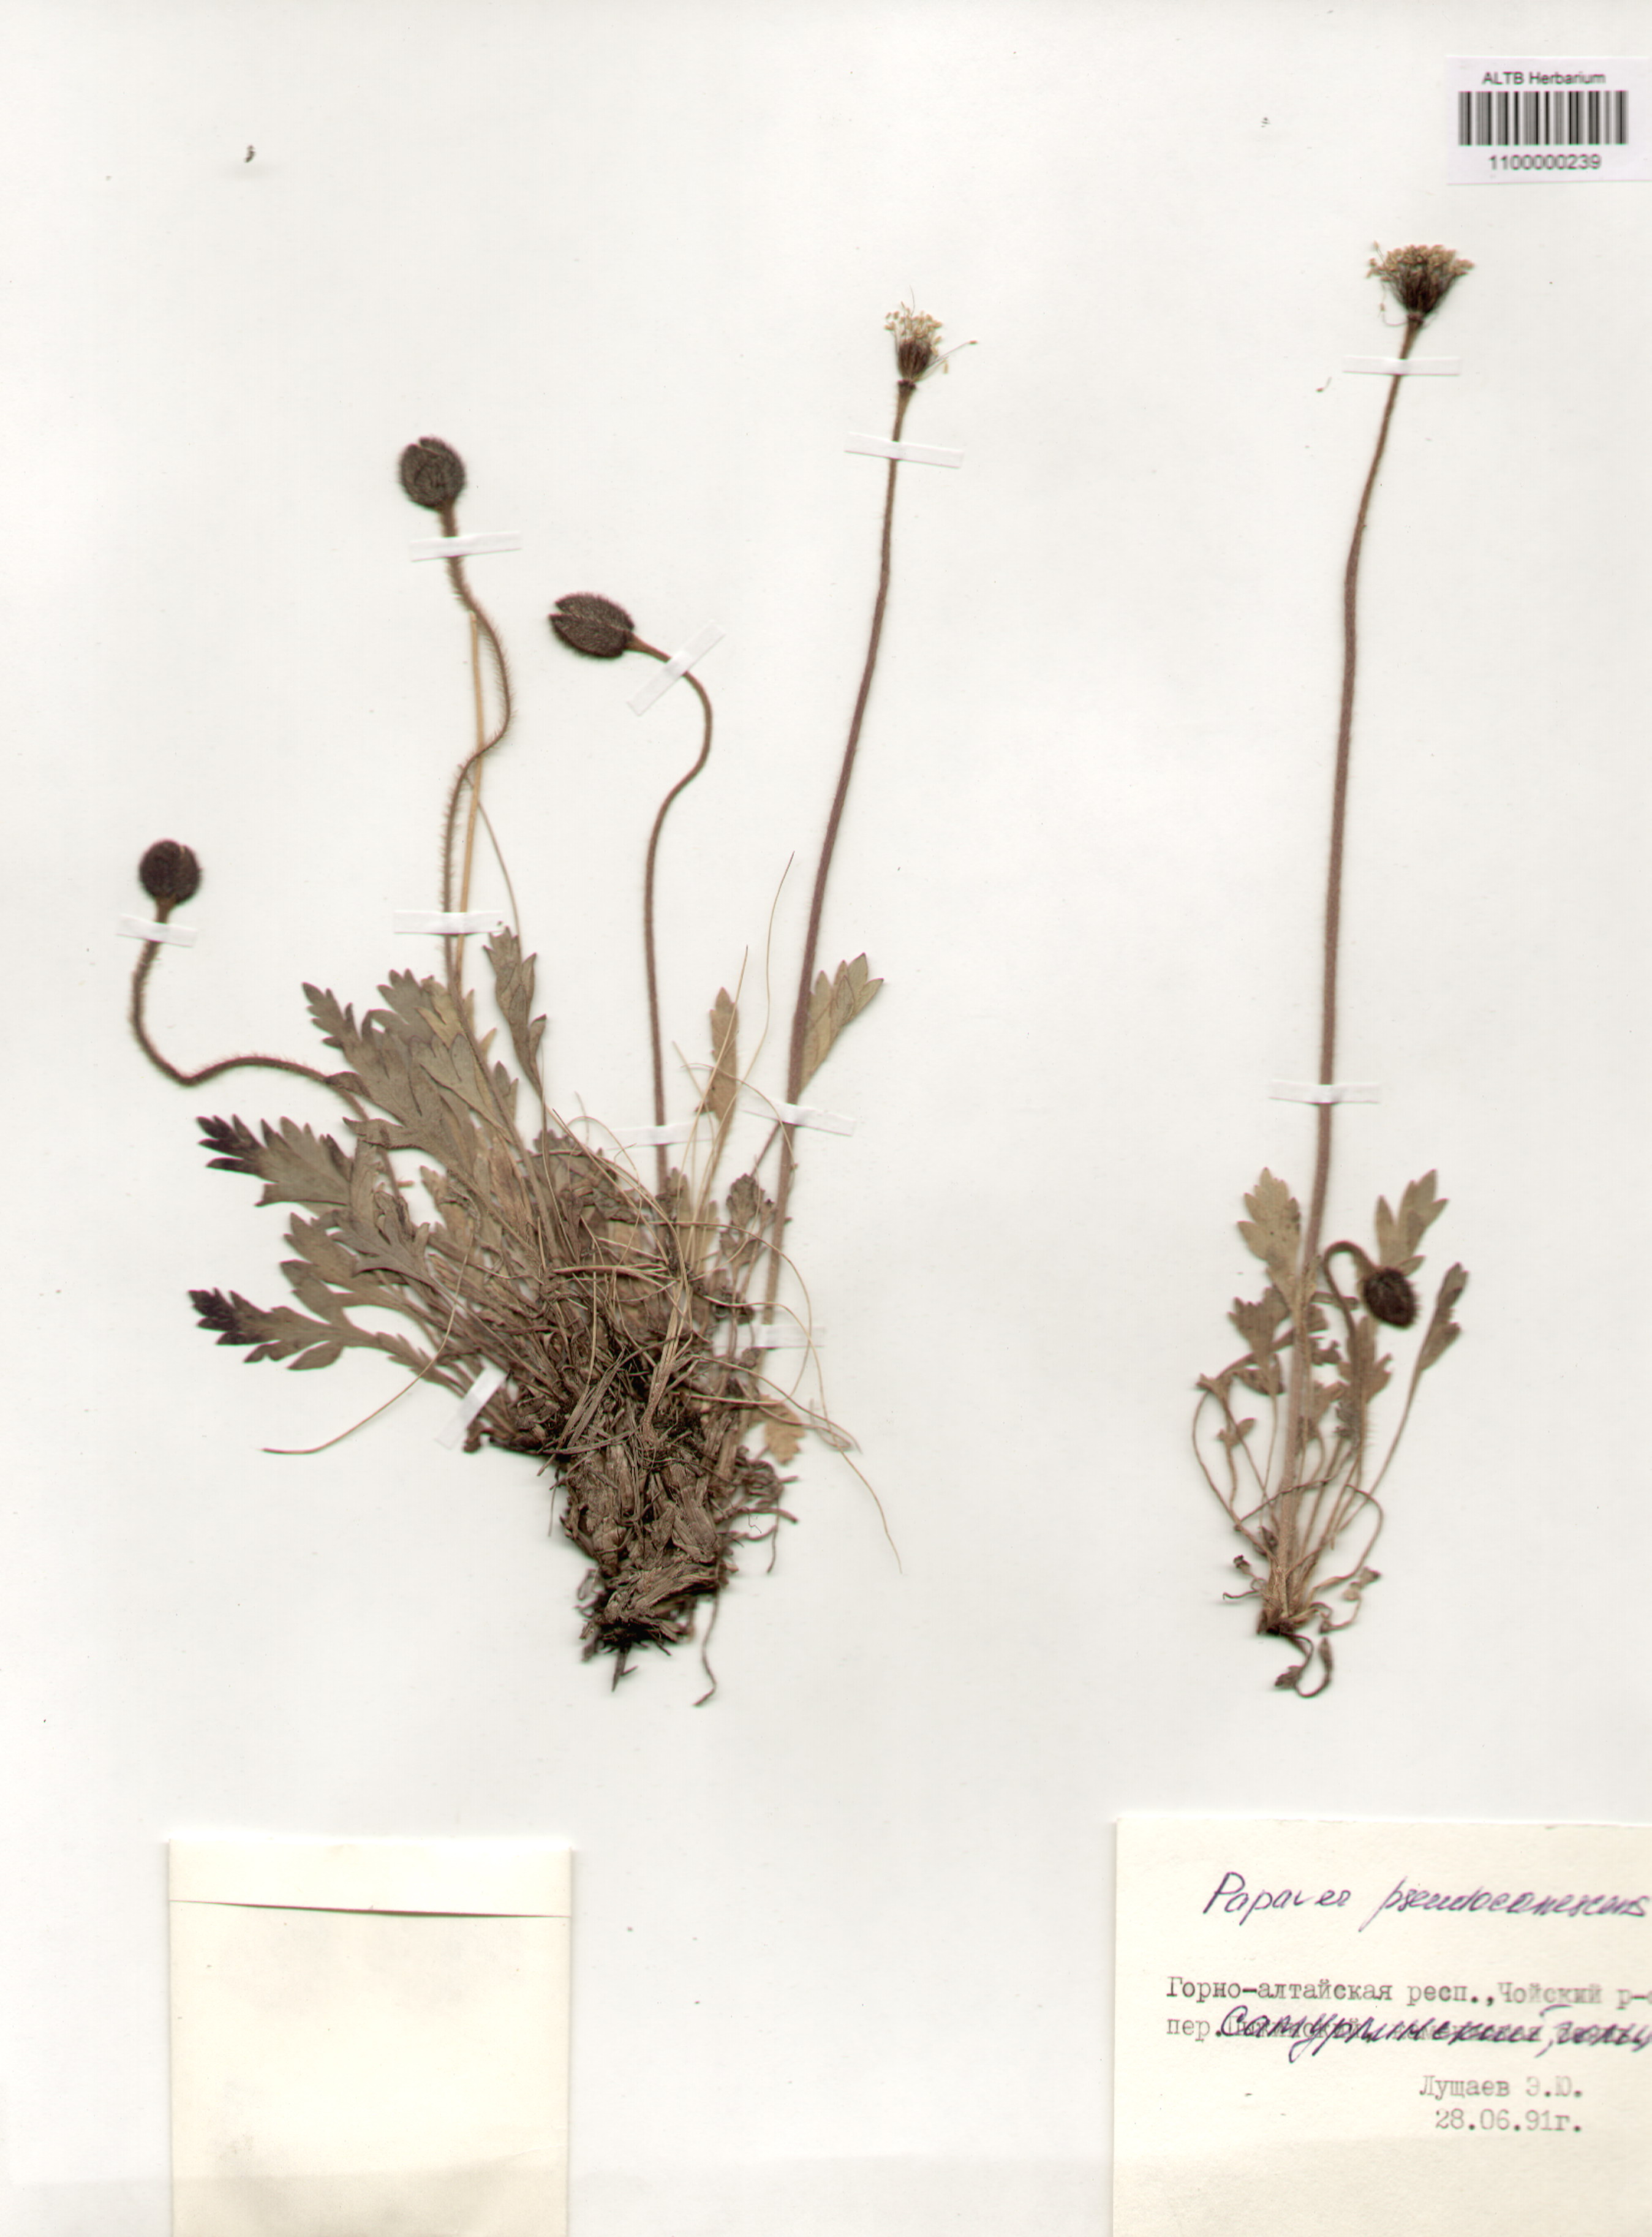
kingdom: Plantae
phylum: Tracheophyta
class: Magnoliopsida
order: Ranunculales
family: Papaveraceae
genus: Papaver
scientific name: Papaver canescens
